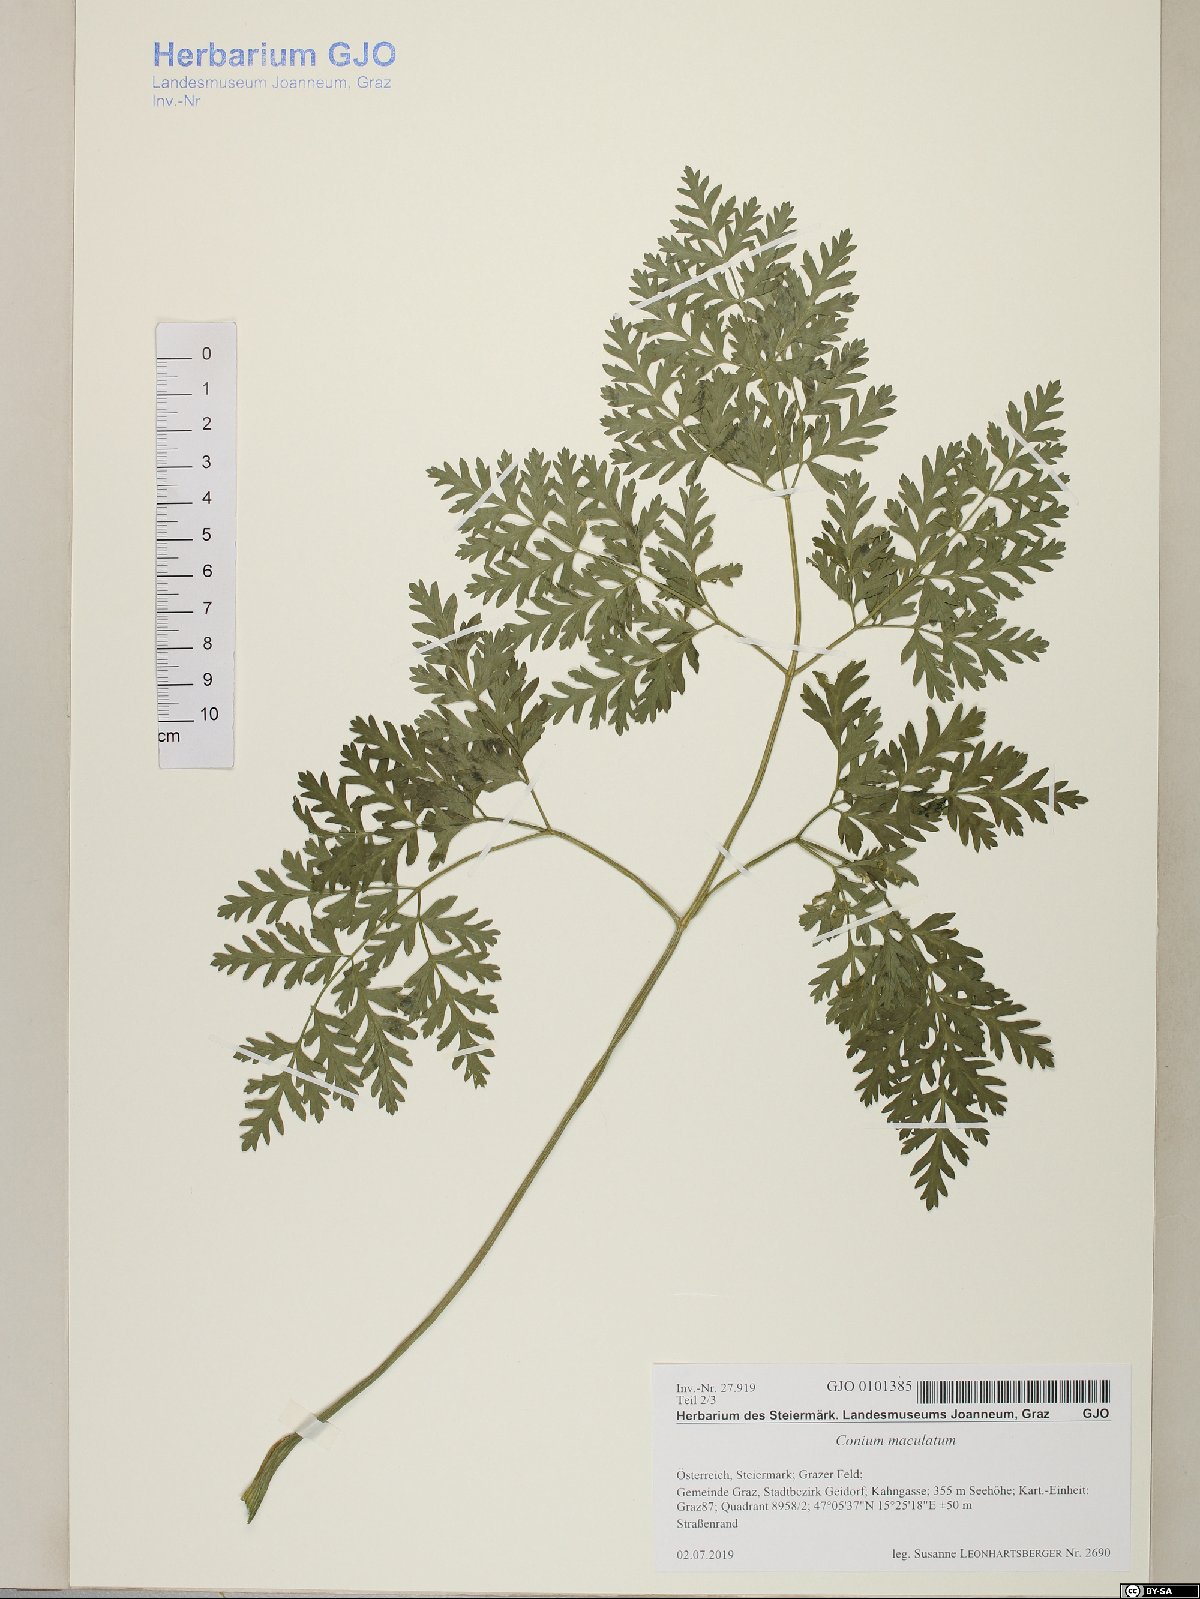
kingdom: Plantae
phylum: Tracheophyta
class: Magnoliopsida
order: Apiales
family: Apiaceae
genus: Conium
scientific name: Conium maculatum
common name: Hemlock
